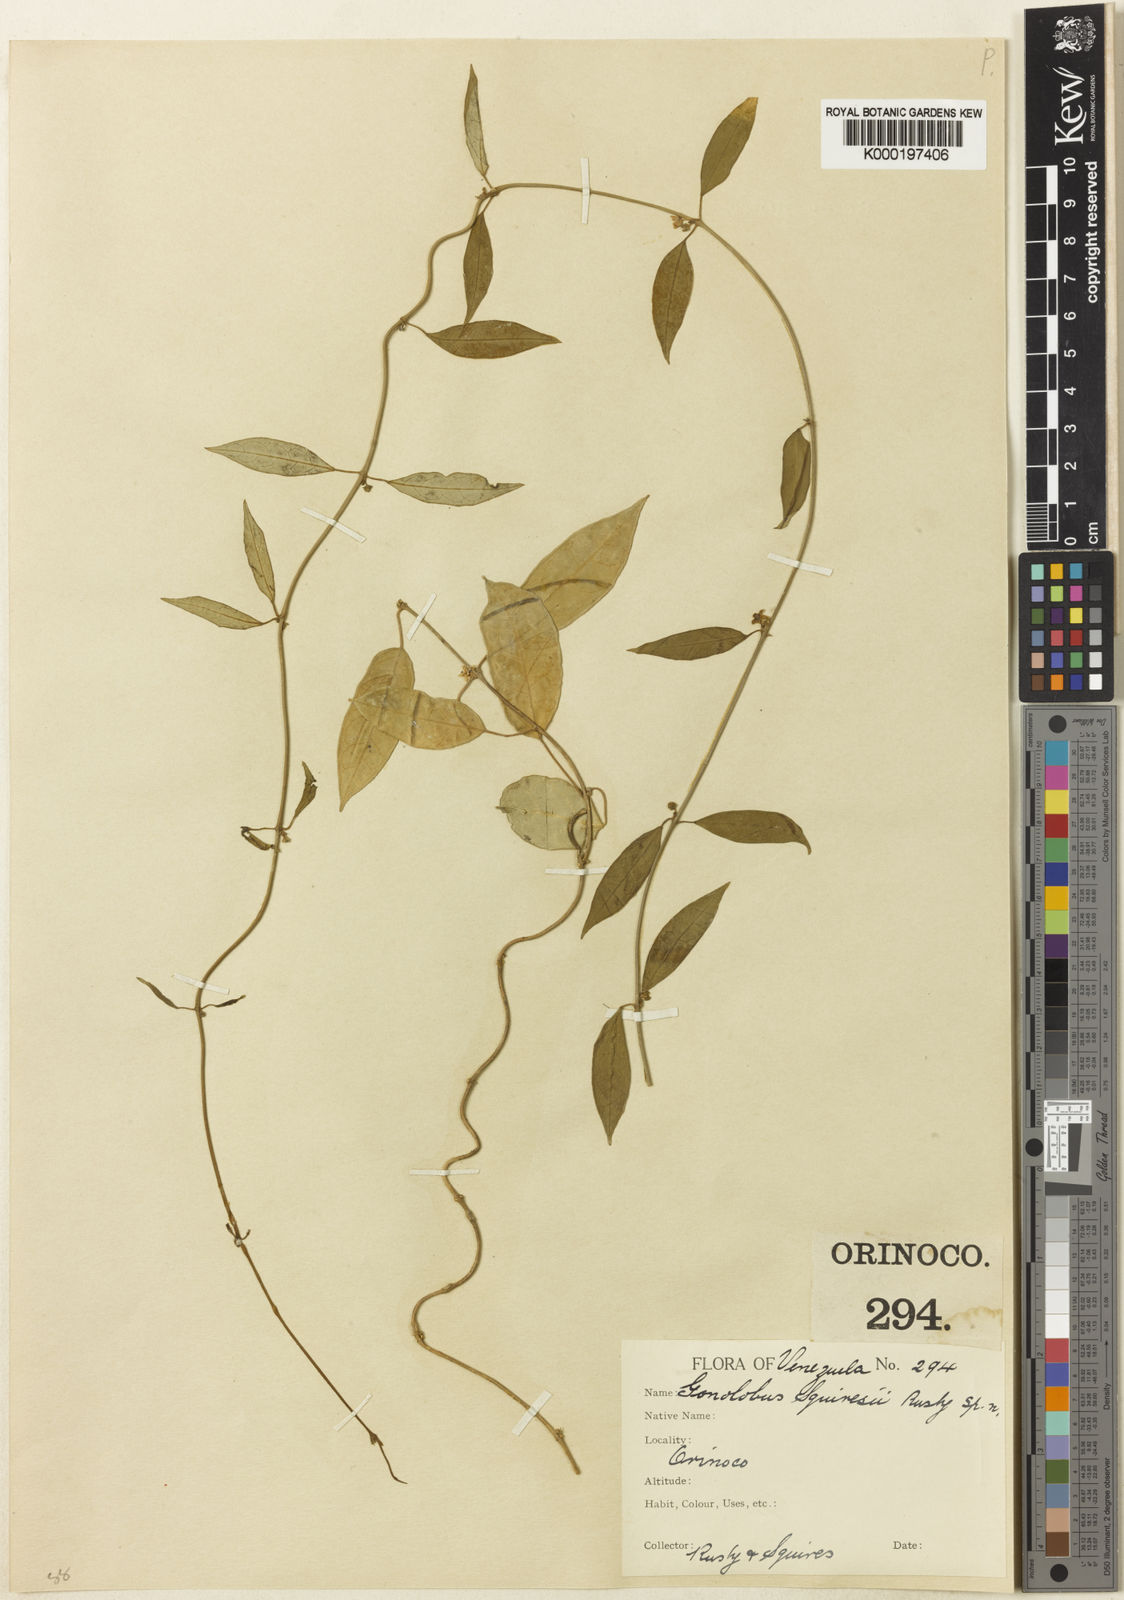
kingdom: Plantae
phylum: Tracheophyta
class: Magnoliopsida
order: Gentianales
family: Apocynaceae
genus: Matelea
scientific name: Matelea squiresii
